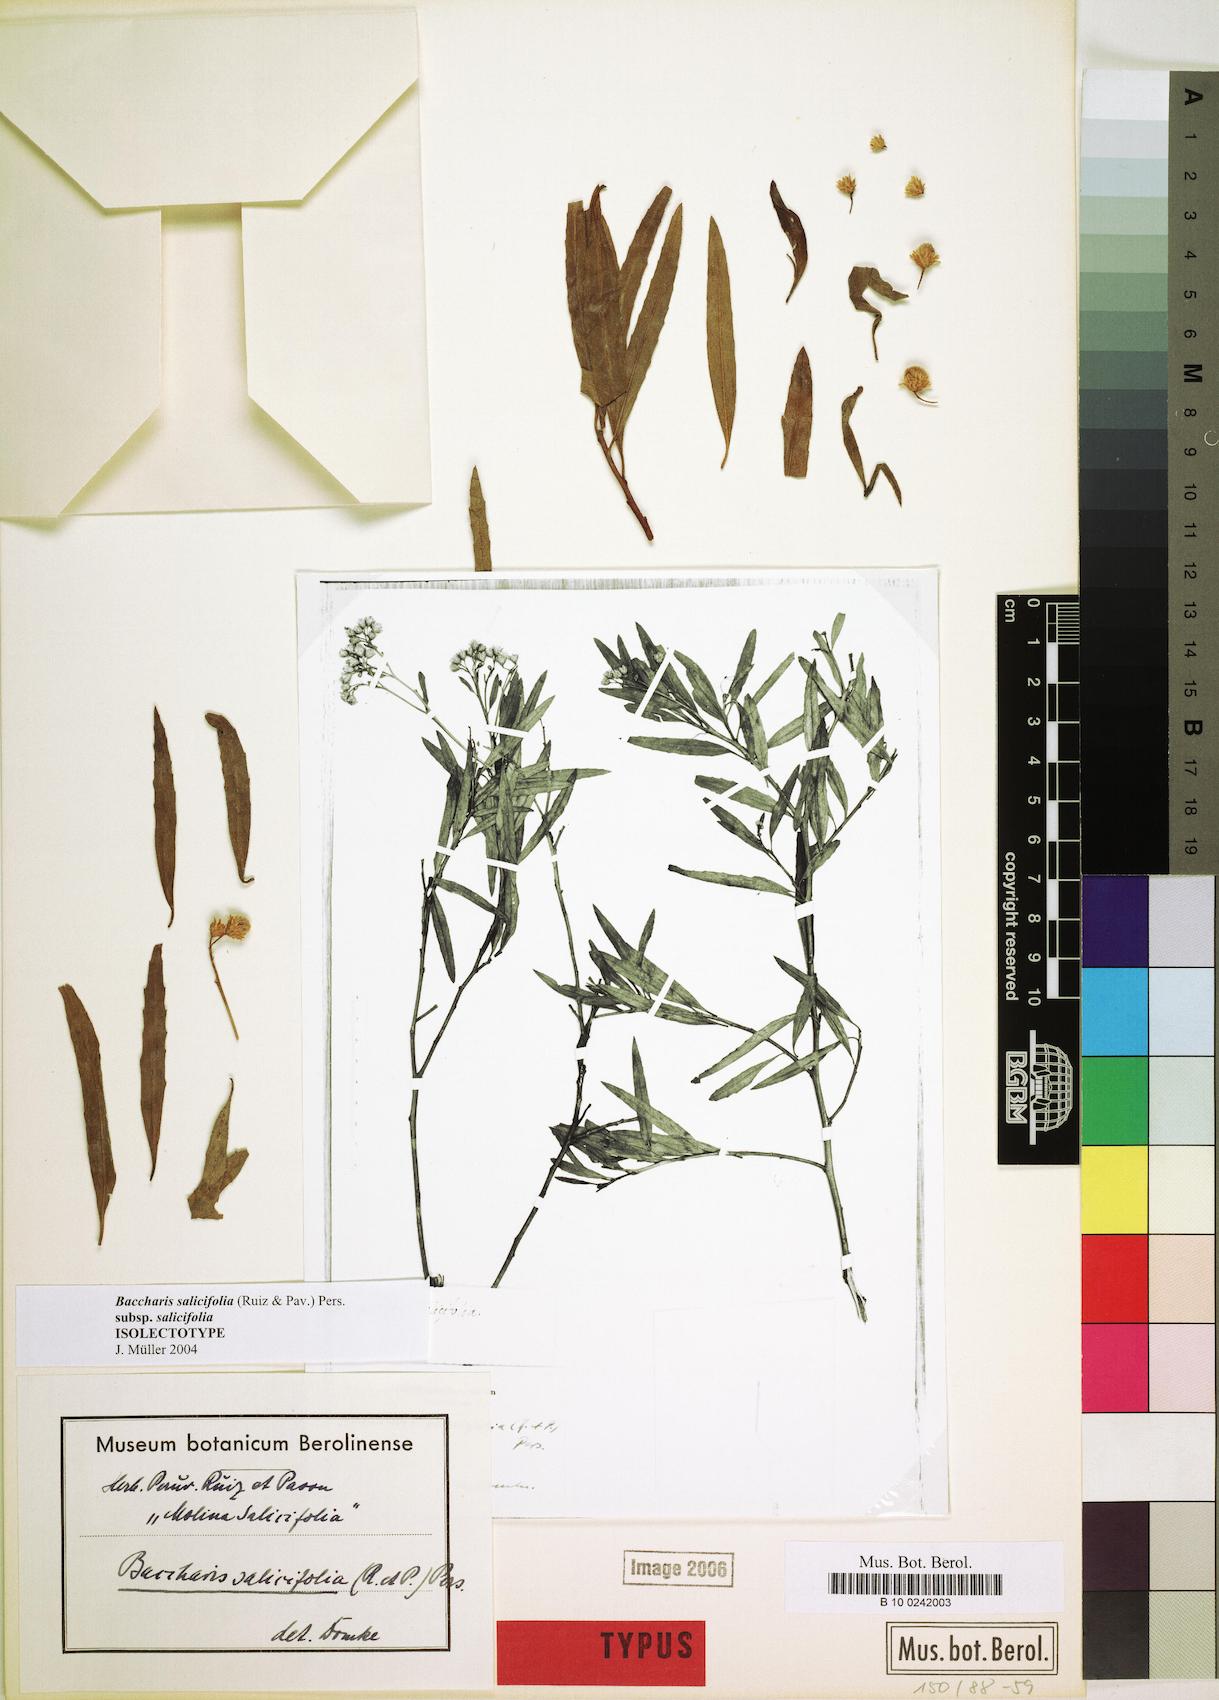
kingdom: Plantae
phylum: Tracheophyta
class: Magnoliopsida
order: Asterales
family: Asteraceae
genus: Baccharis
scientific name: Baccharis salicifolia
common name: Sticky baccharis
